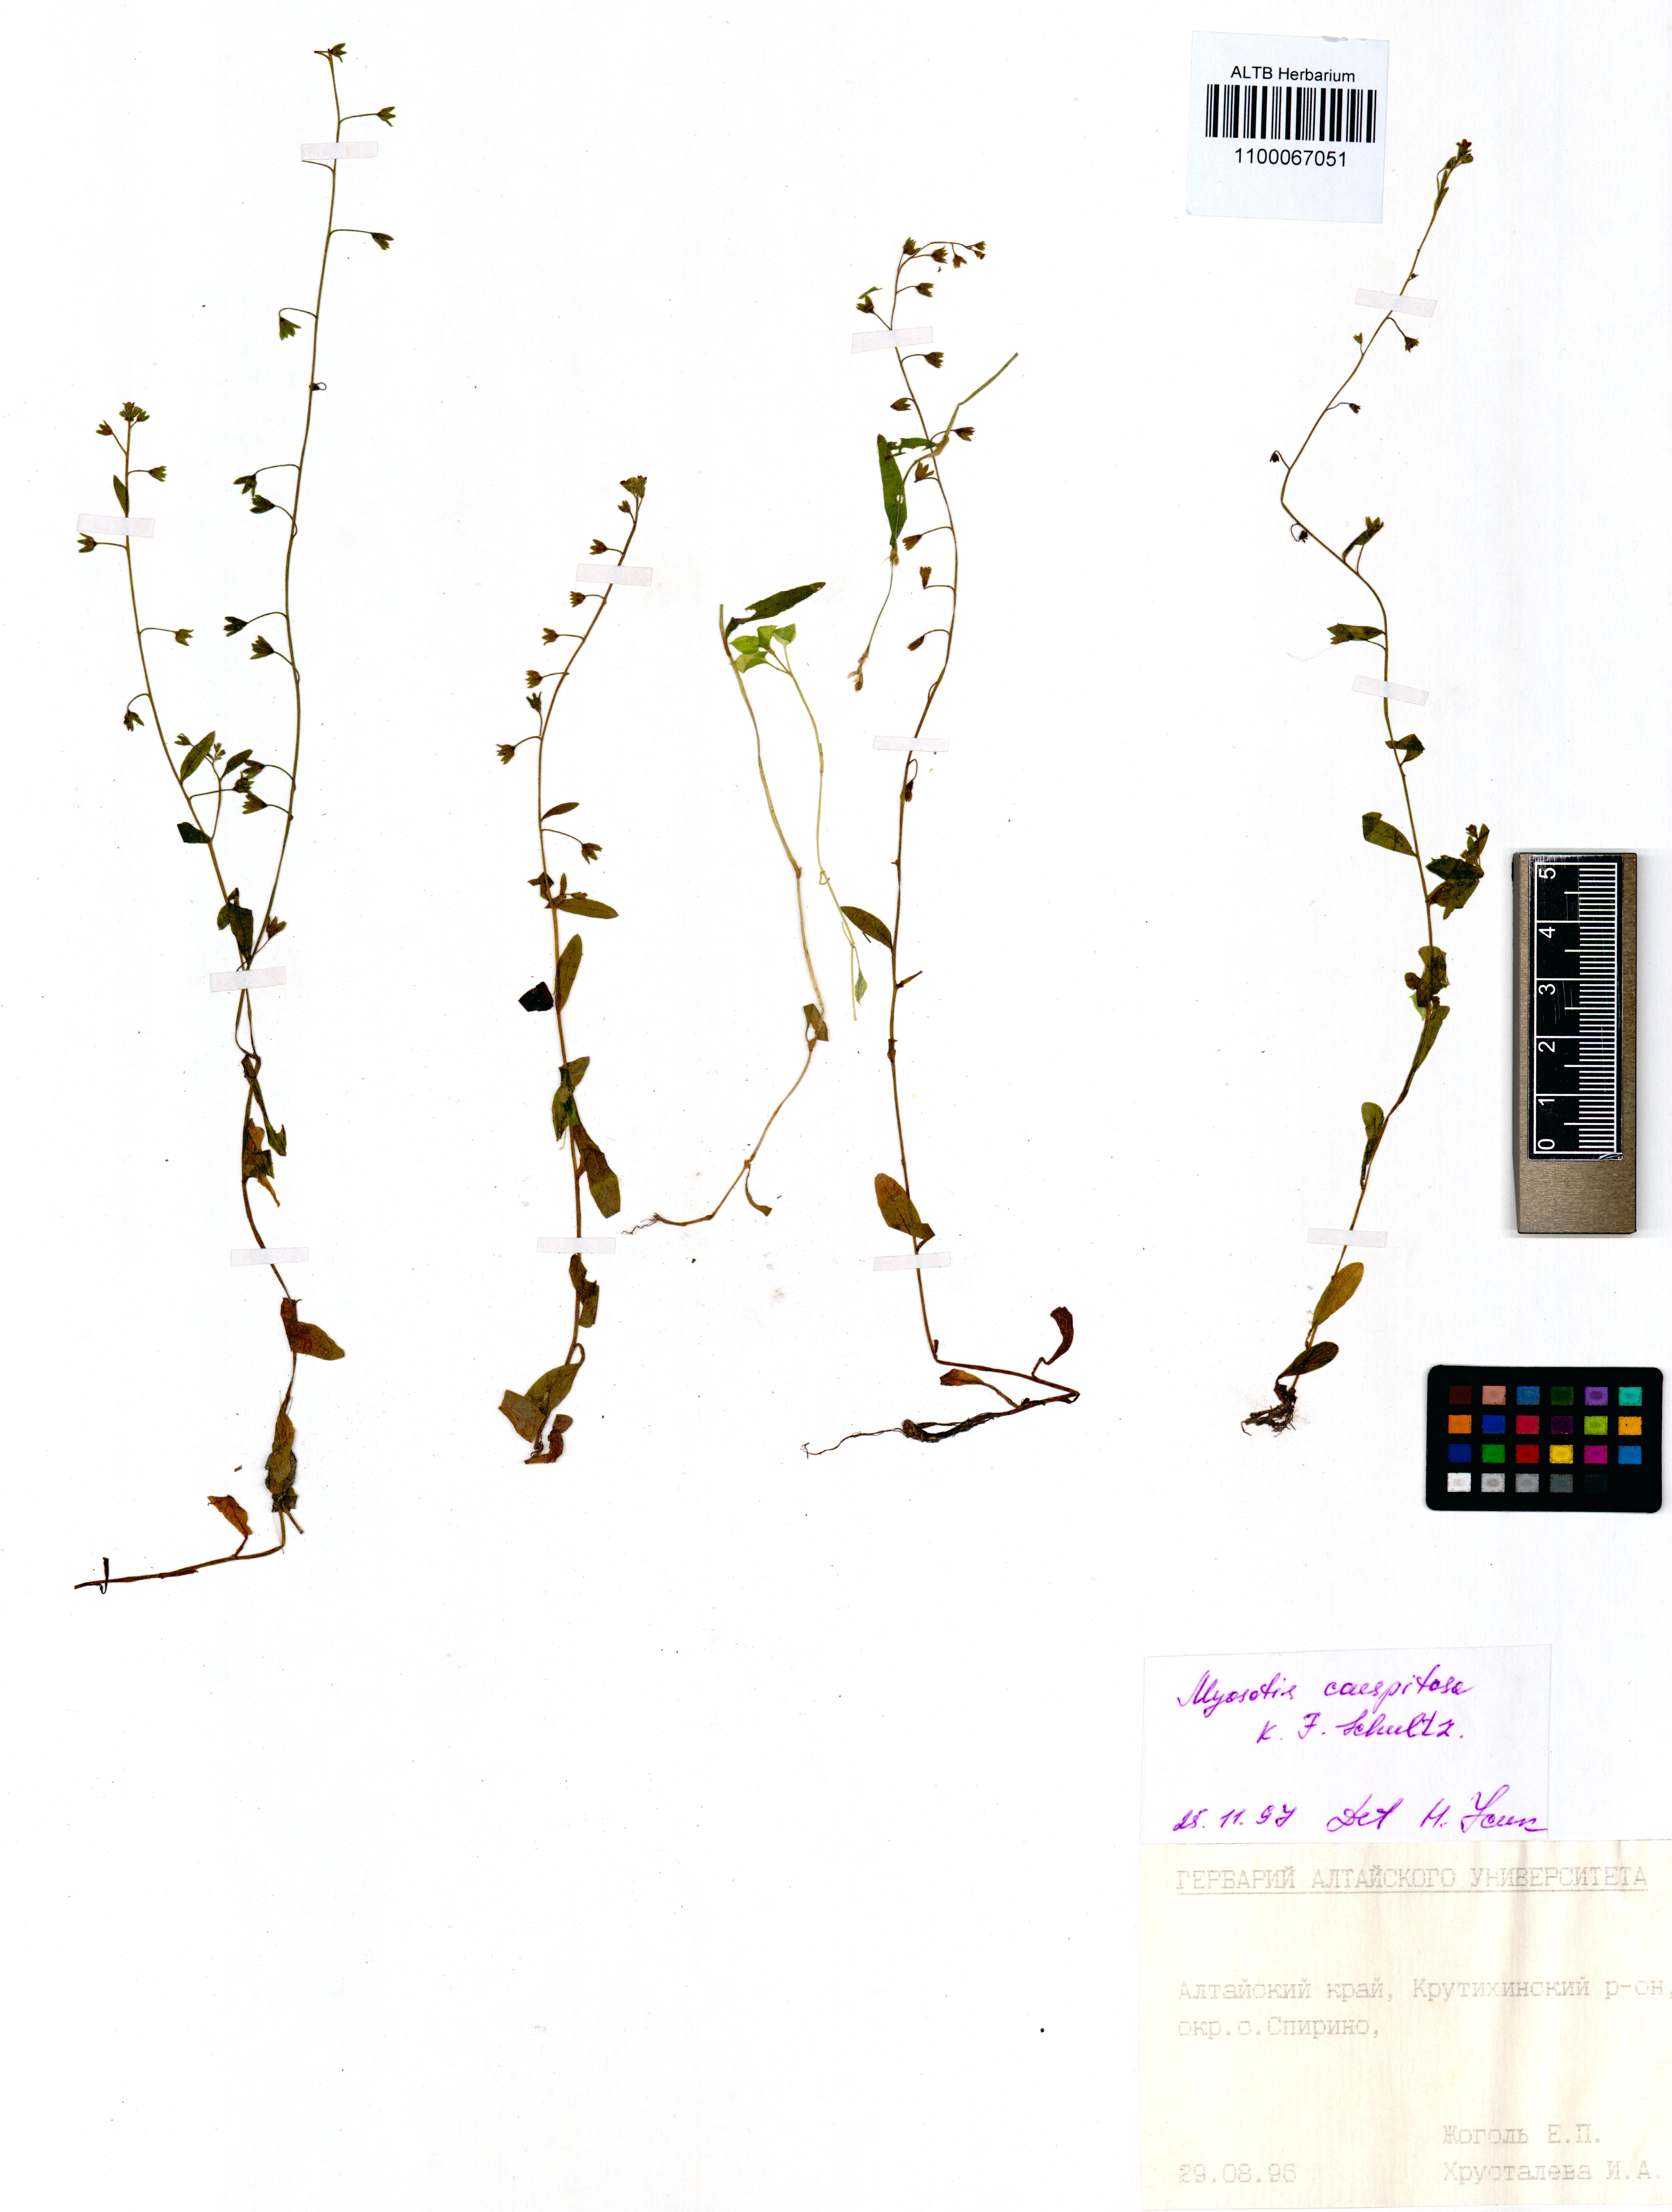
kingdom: Plantae
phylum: Tracheophyta
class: Magnoliopsida
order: Boraginales
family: Boraginaceae
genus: Myosotis
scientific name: Myosotis laxa
